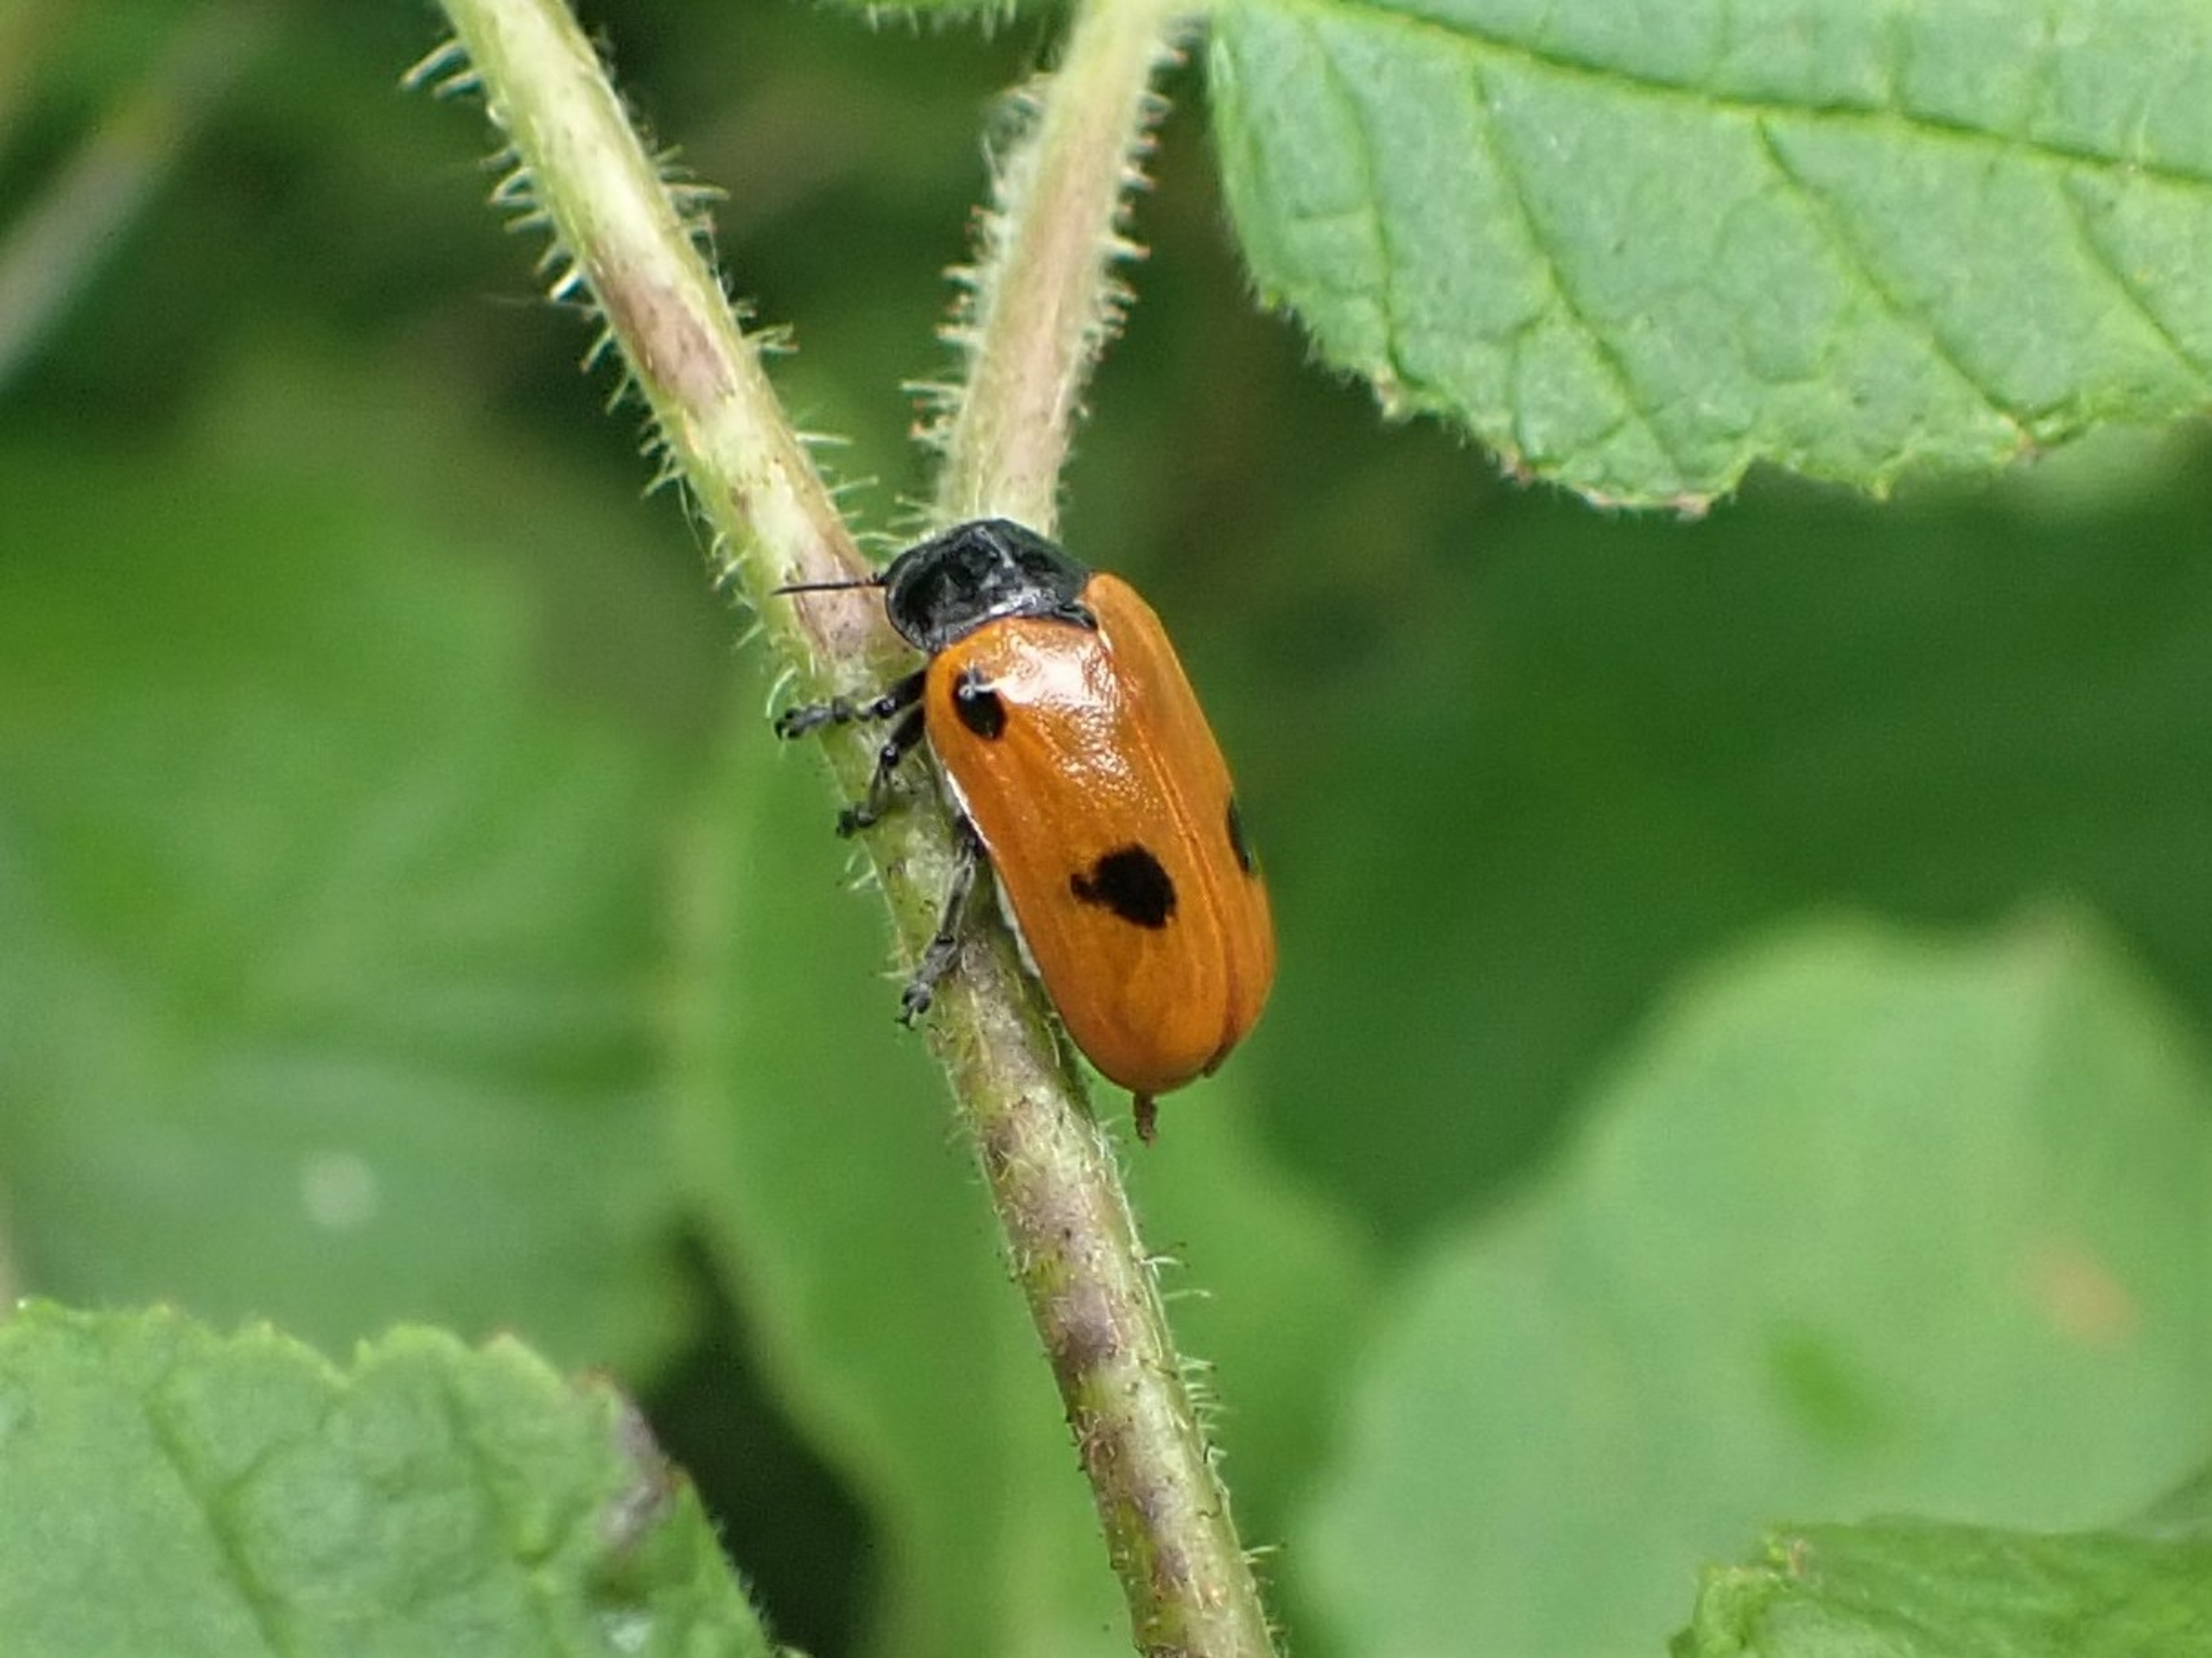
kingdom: Animalia
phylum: Arthropoda
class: Insecta
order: Coleoptera
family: Chrysomelidae
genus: Clytra
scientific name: Clytra quadripunctata
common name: Myrebladbille
